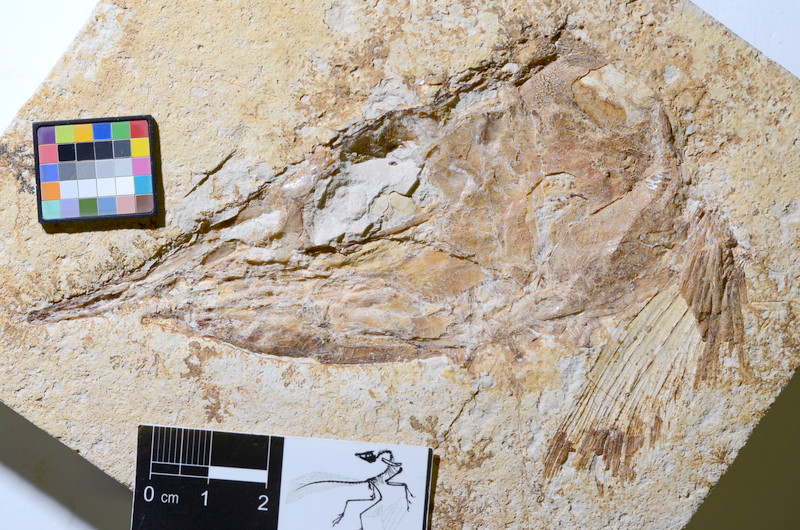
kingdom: Animalia
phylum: Chordata
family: Aspidorhynchidae
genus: Aspidorhynchus
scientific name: Aspidorhynchus acutirostris
